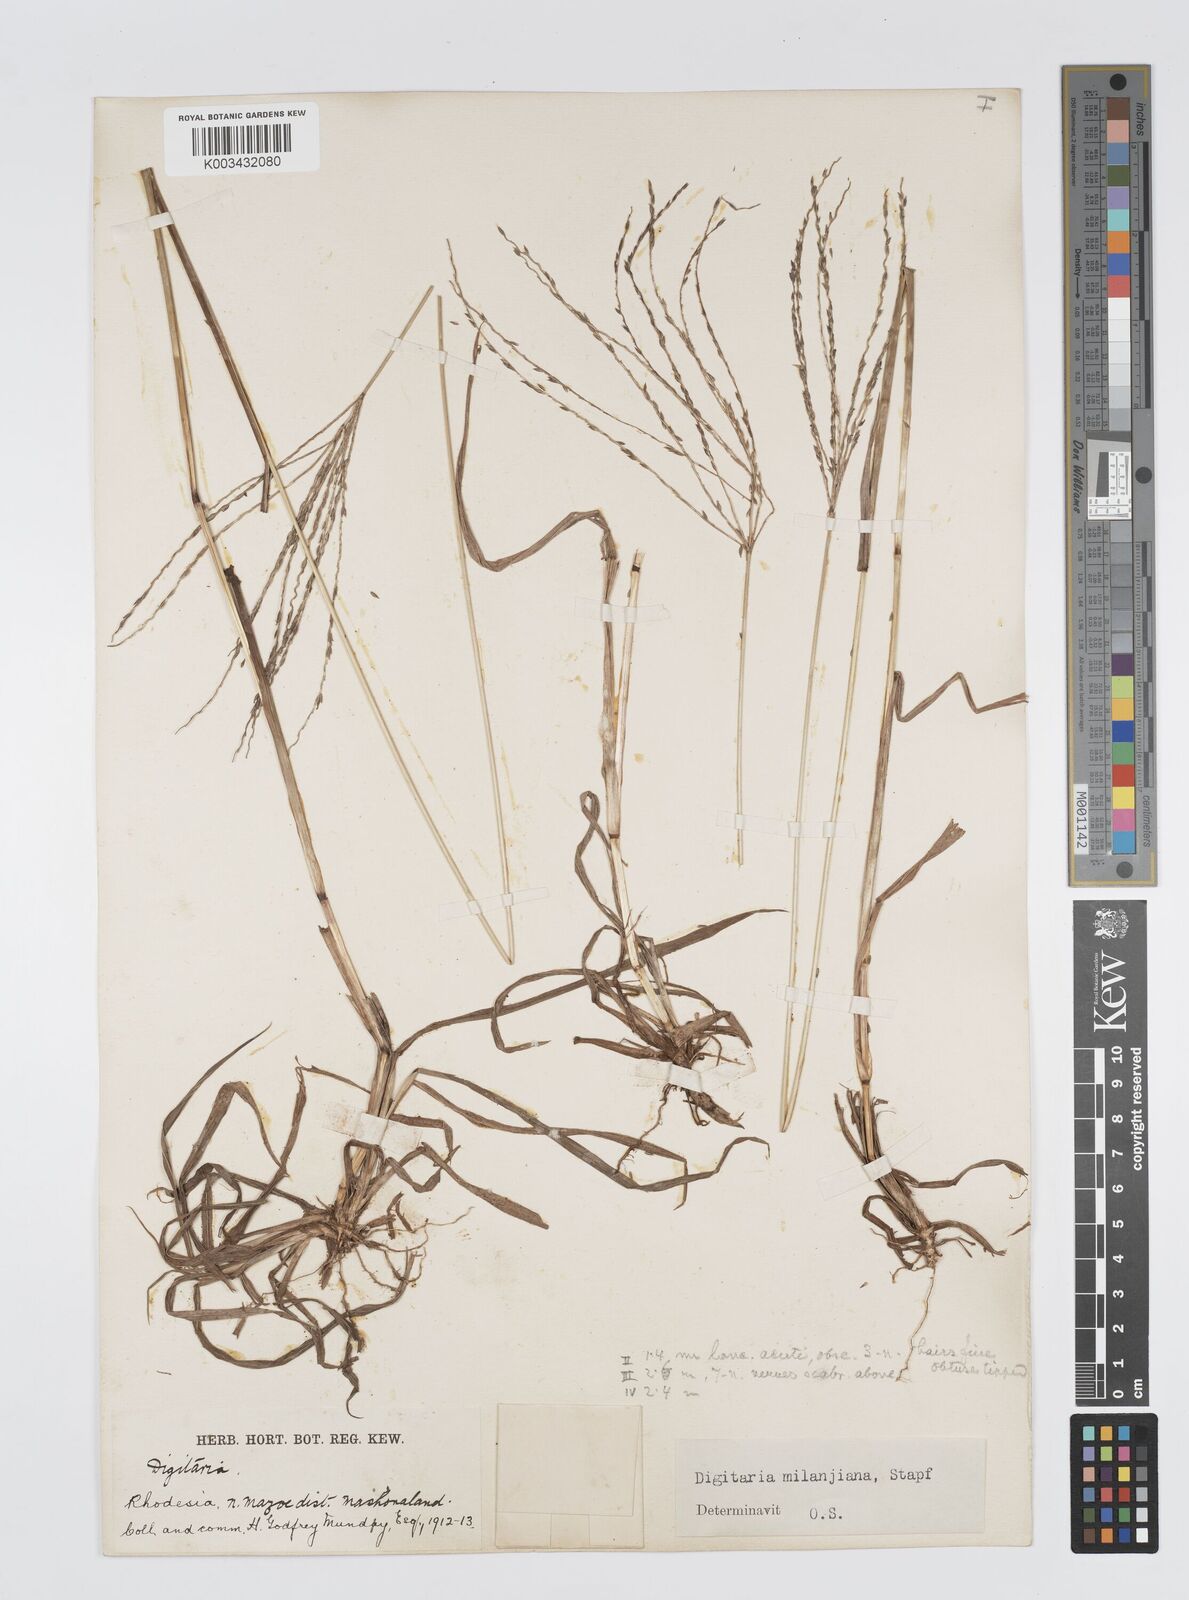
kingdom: Plantae
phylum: Tracheophyta
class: Liliopsida
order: Poales
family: Poaceae
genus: Digitaria
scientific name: Digitaria milanjiana
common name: Madagascar crabgrass
